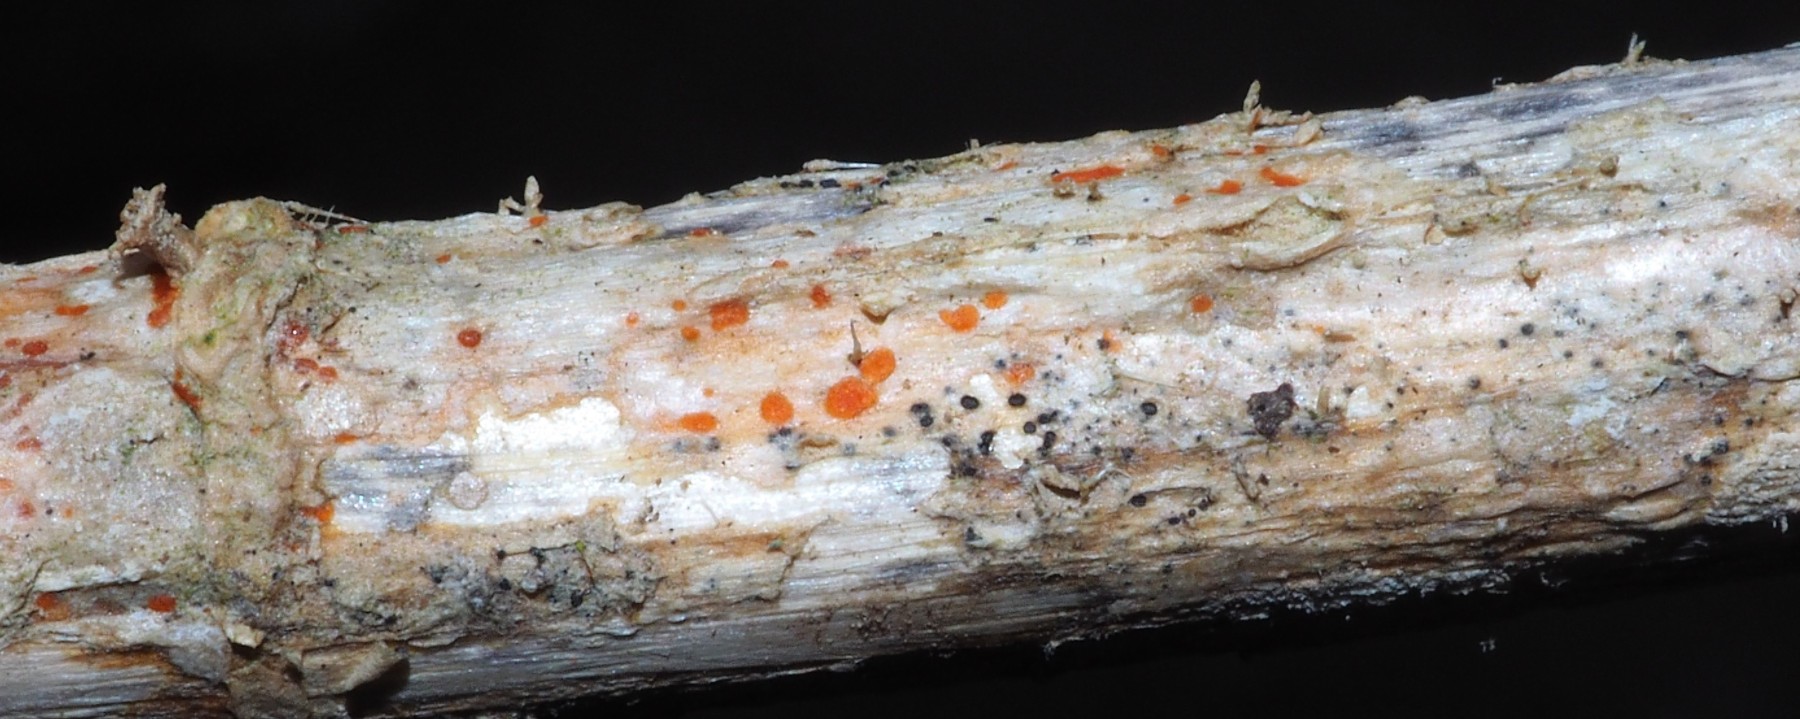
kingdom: Fungi
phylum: Ascomycota
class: Leotiomycetes
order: Helotiales
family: Calloriaceae
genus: Calloria
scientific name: Calloria urticae
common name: nælde-orangeskive
